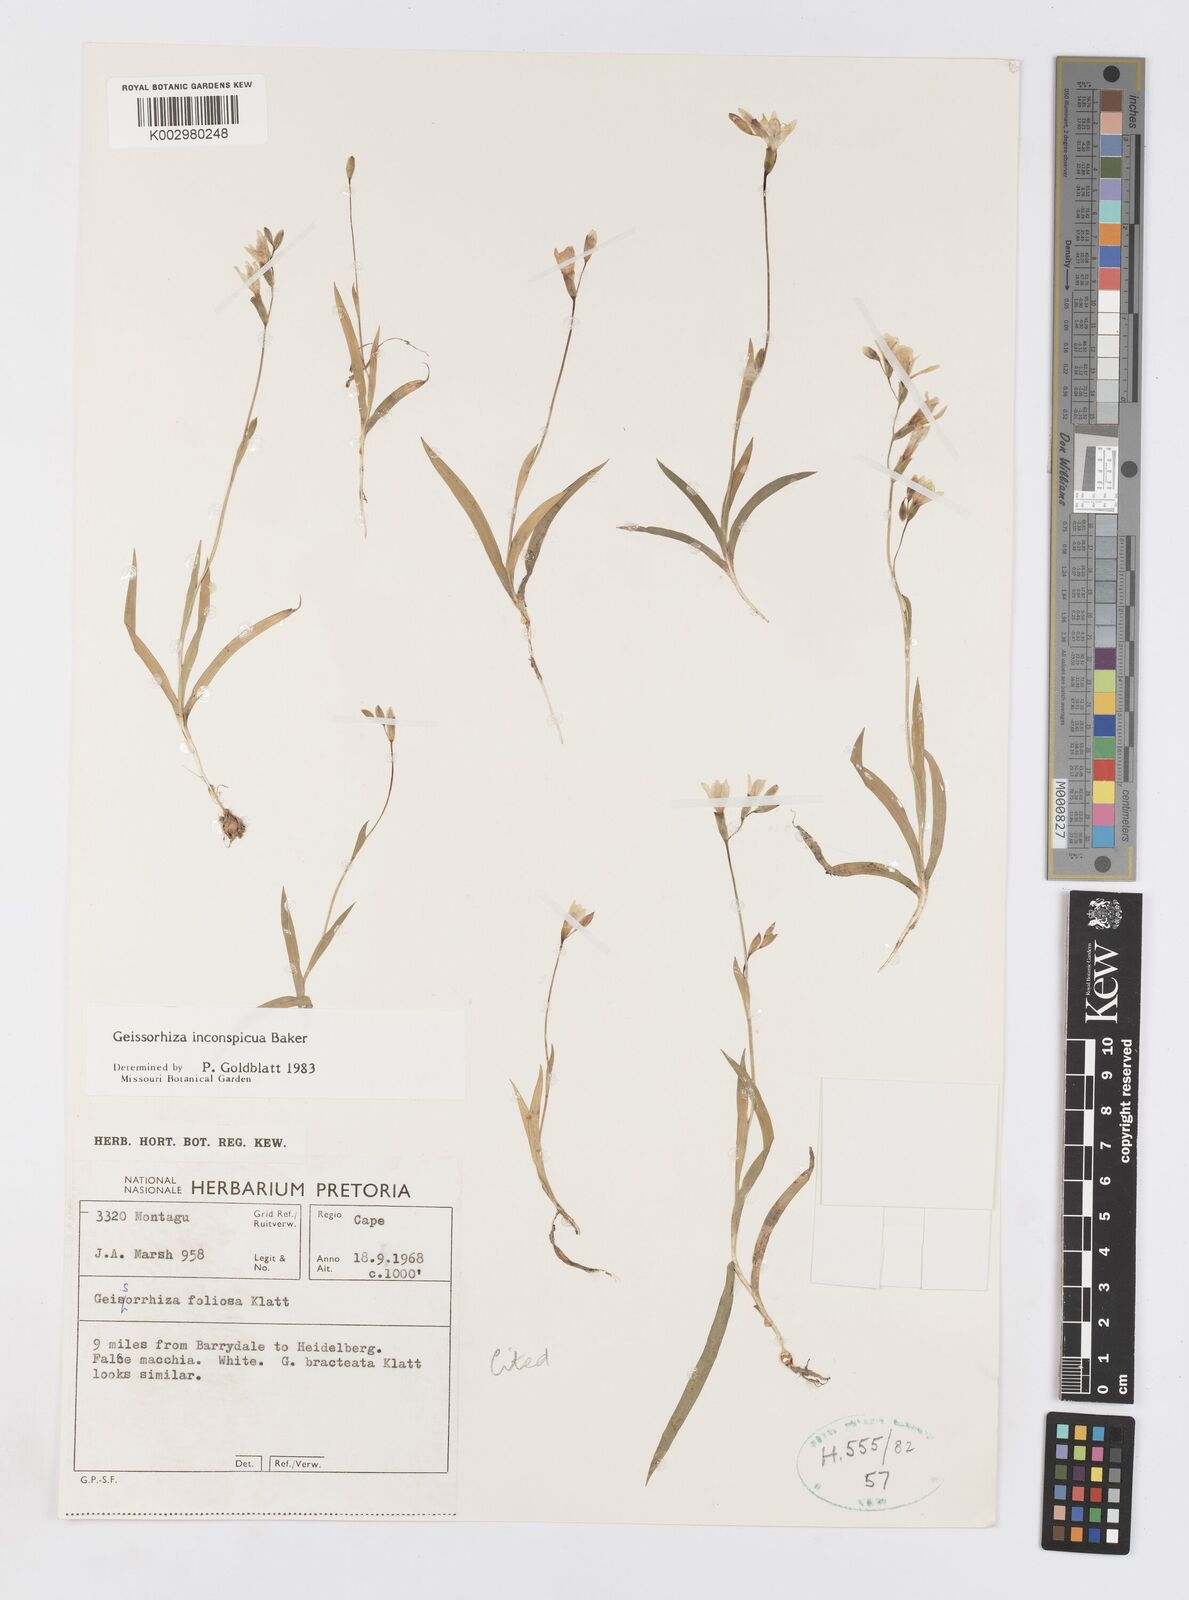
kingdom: Plantae
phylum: Tracheophyta
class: Liliopsida
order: Asparagales
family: Iridaceae
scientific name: Iridaceae
